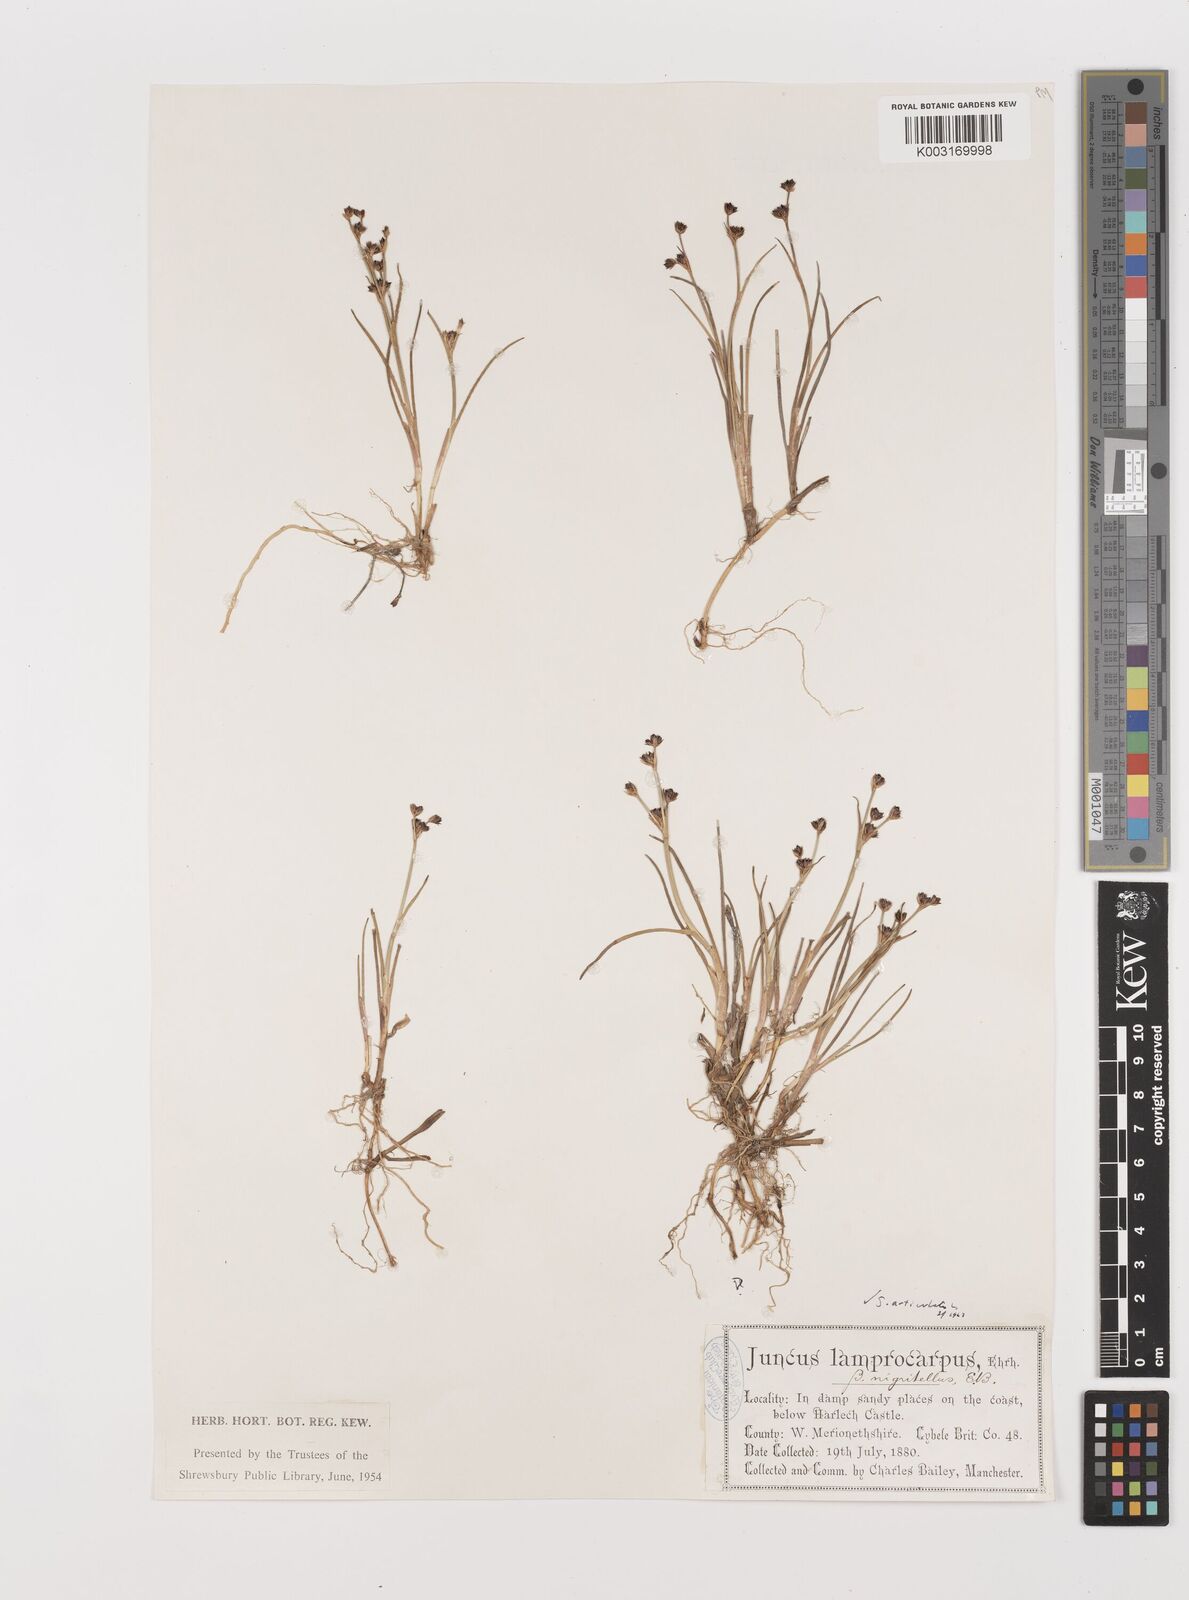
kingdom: Plantae
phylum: Tracheophyta
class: Liliopsida
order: Poales
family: Juncaceae
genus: Juncus
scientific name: Juncus articulatus
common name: Jointed rush
